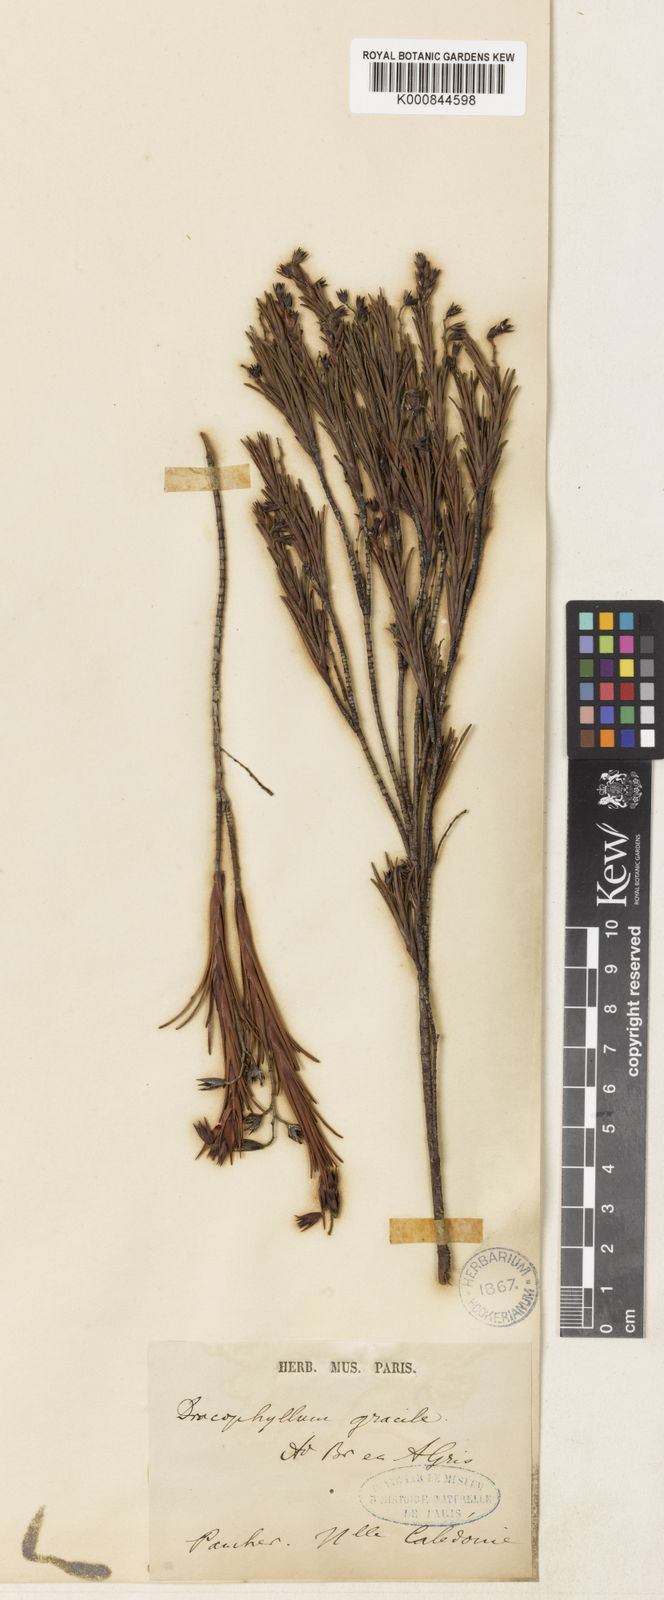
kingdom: Plantae
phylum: Tracheophyta
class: Magnoliopsida
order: Ericales
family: Ericaceae
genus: Dracophyllum
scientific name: Dracophyllum cosmelioides
